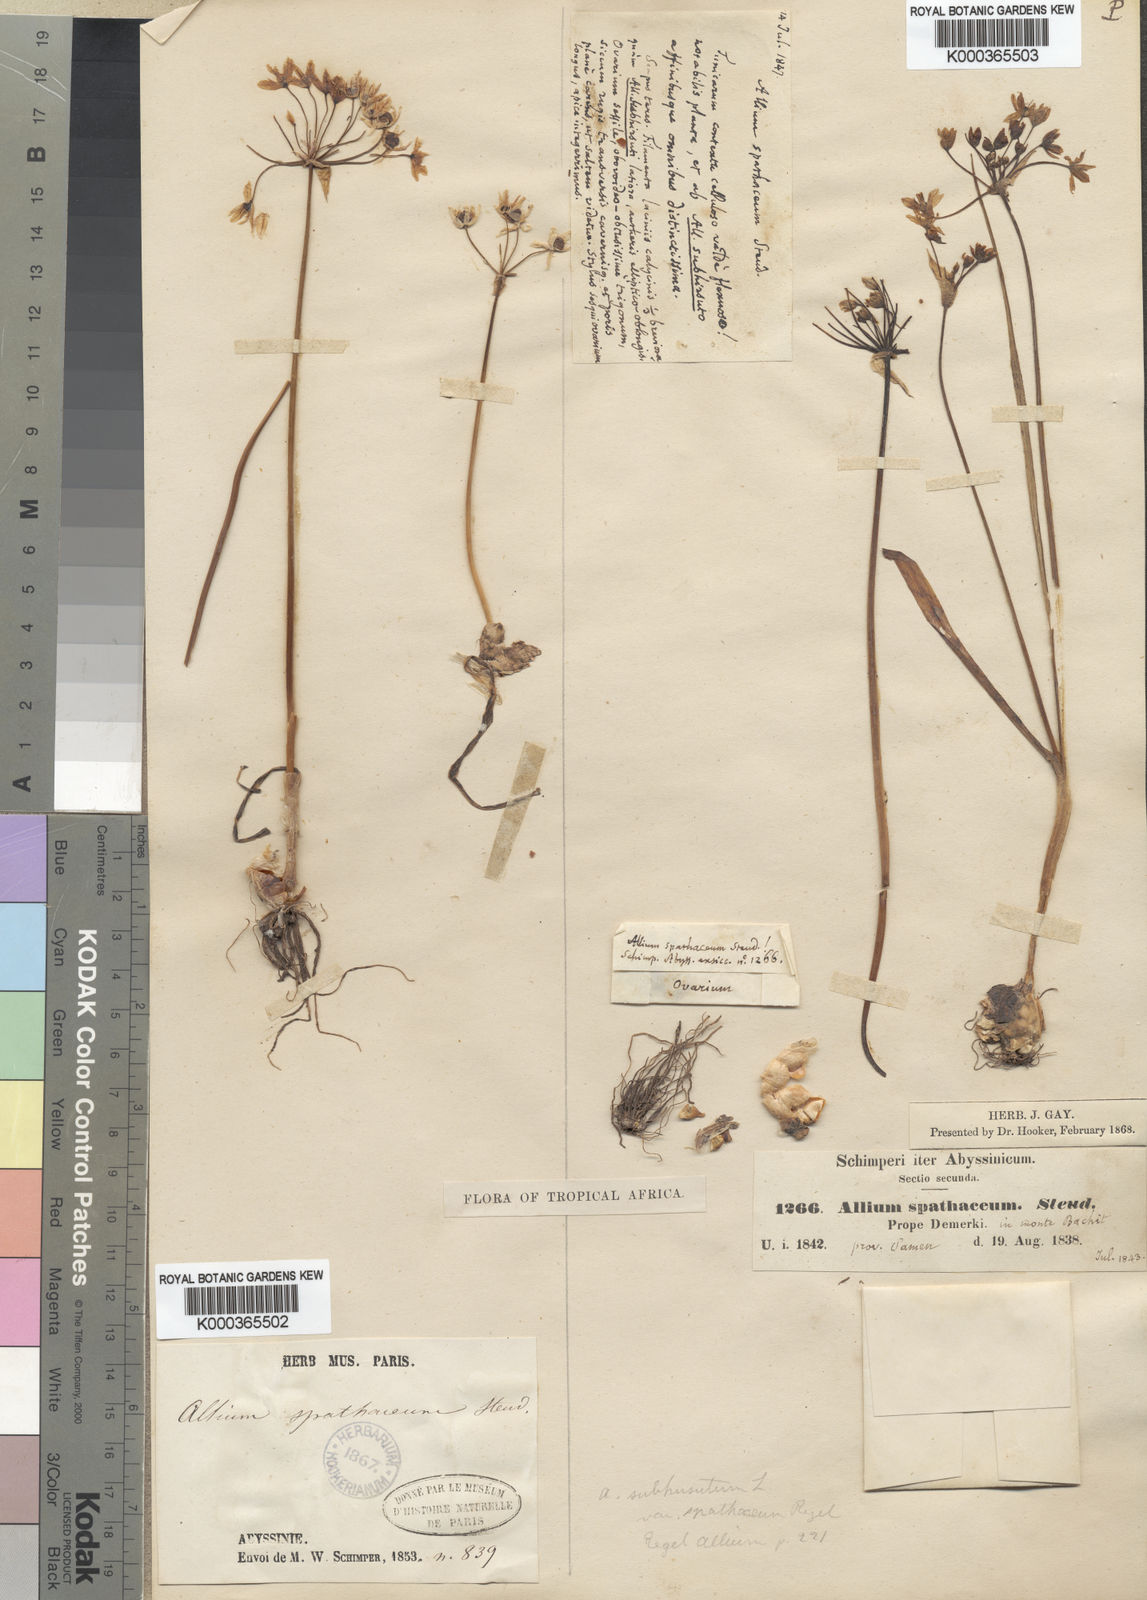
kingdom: Plantae
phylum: Tracheophyta
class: Liliopsida
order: Asparagales
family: Amaryllidaceae
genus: Allium
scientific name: Allium spathaceum
